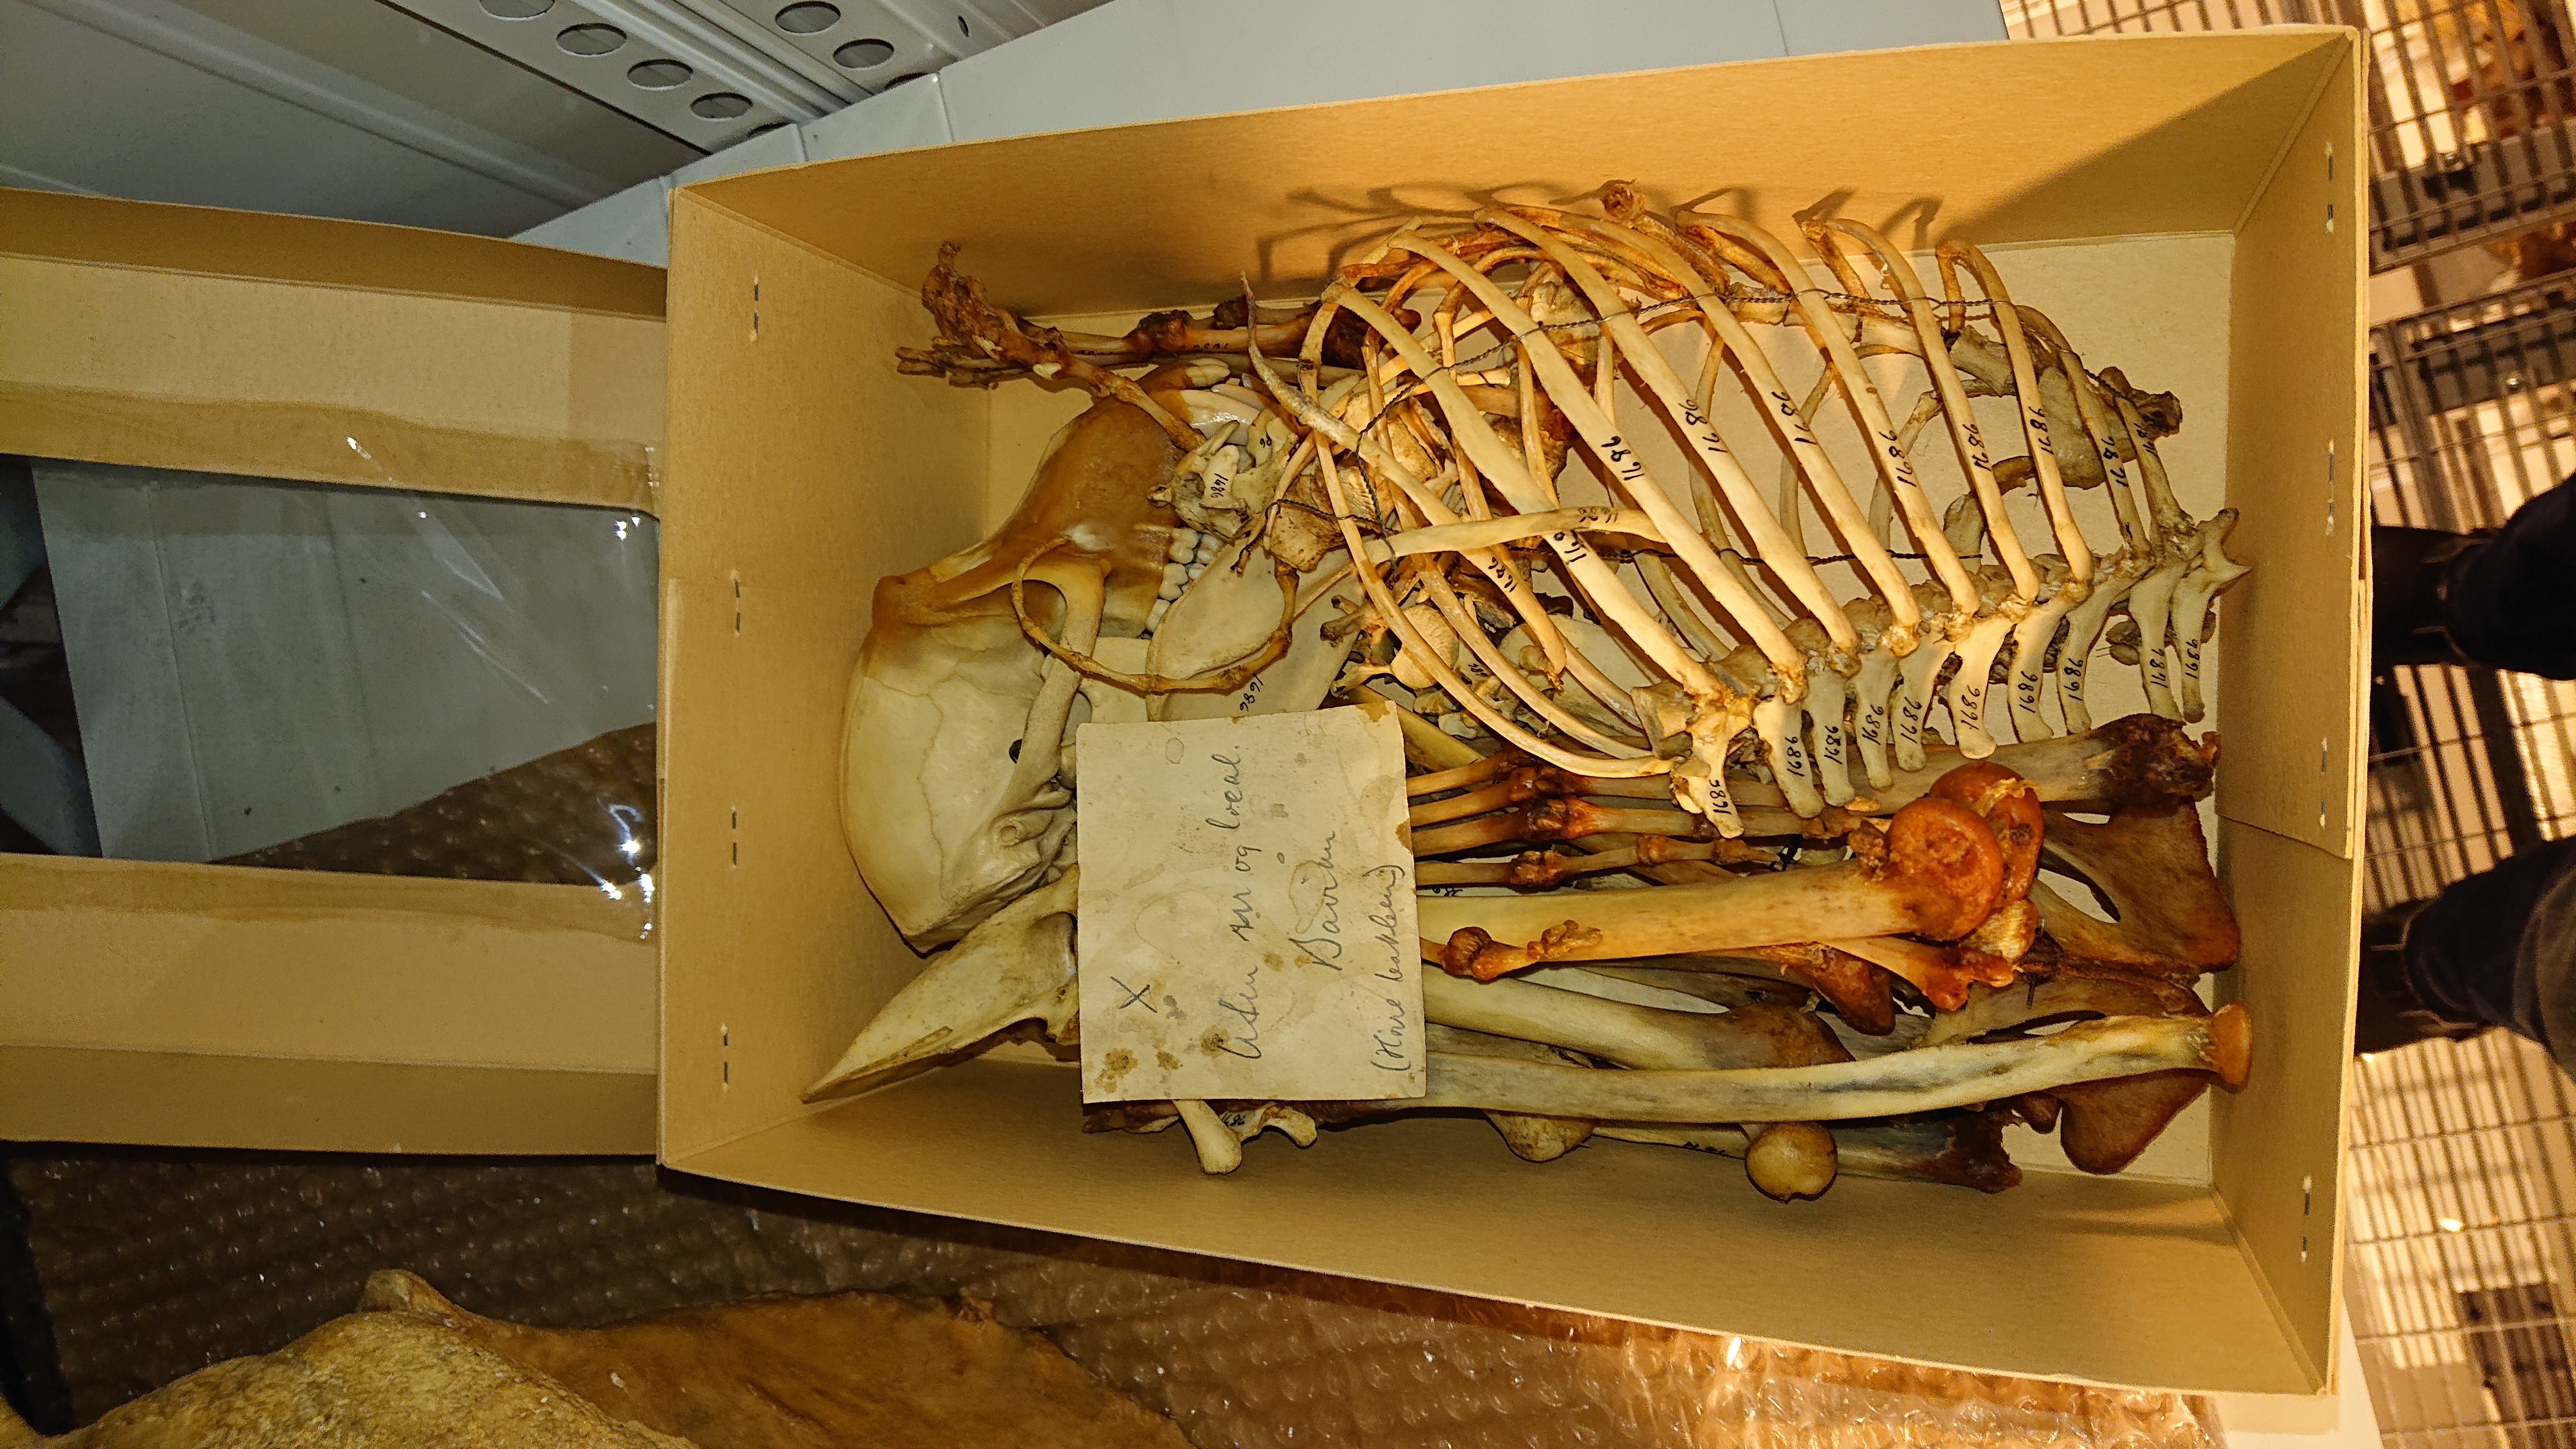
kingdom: Animalia
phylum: Chordata
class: Mammalia
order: Primates
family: Cercopithecidae
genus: Papio
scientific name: Papio cynocephalus
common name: Yellow baboon
